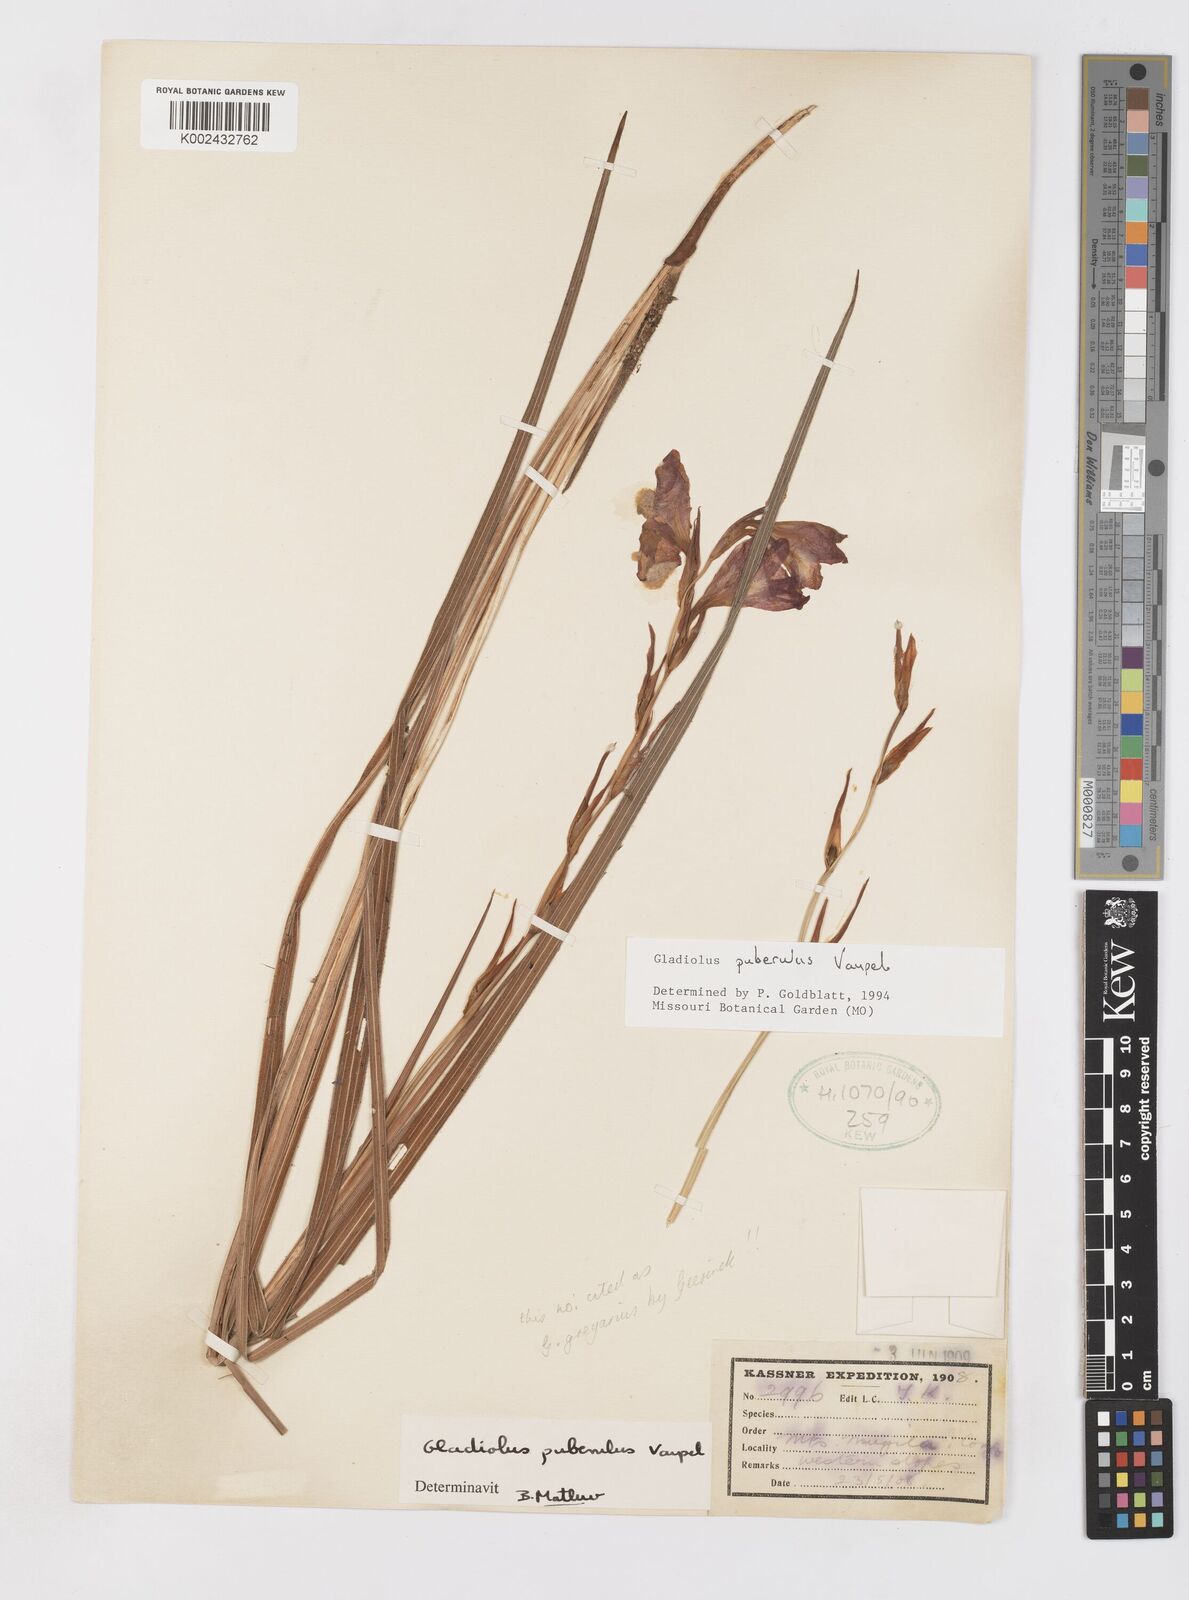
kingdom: Plantae
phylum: Tracheophyta
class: Liliopsida
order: Asparagales
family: Iridaceae
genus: Gladiolus
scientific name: Gladiolus puberulus
